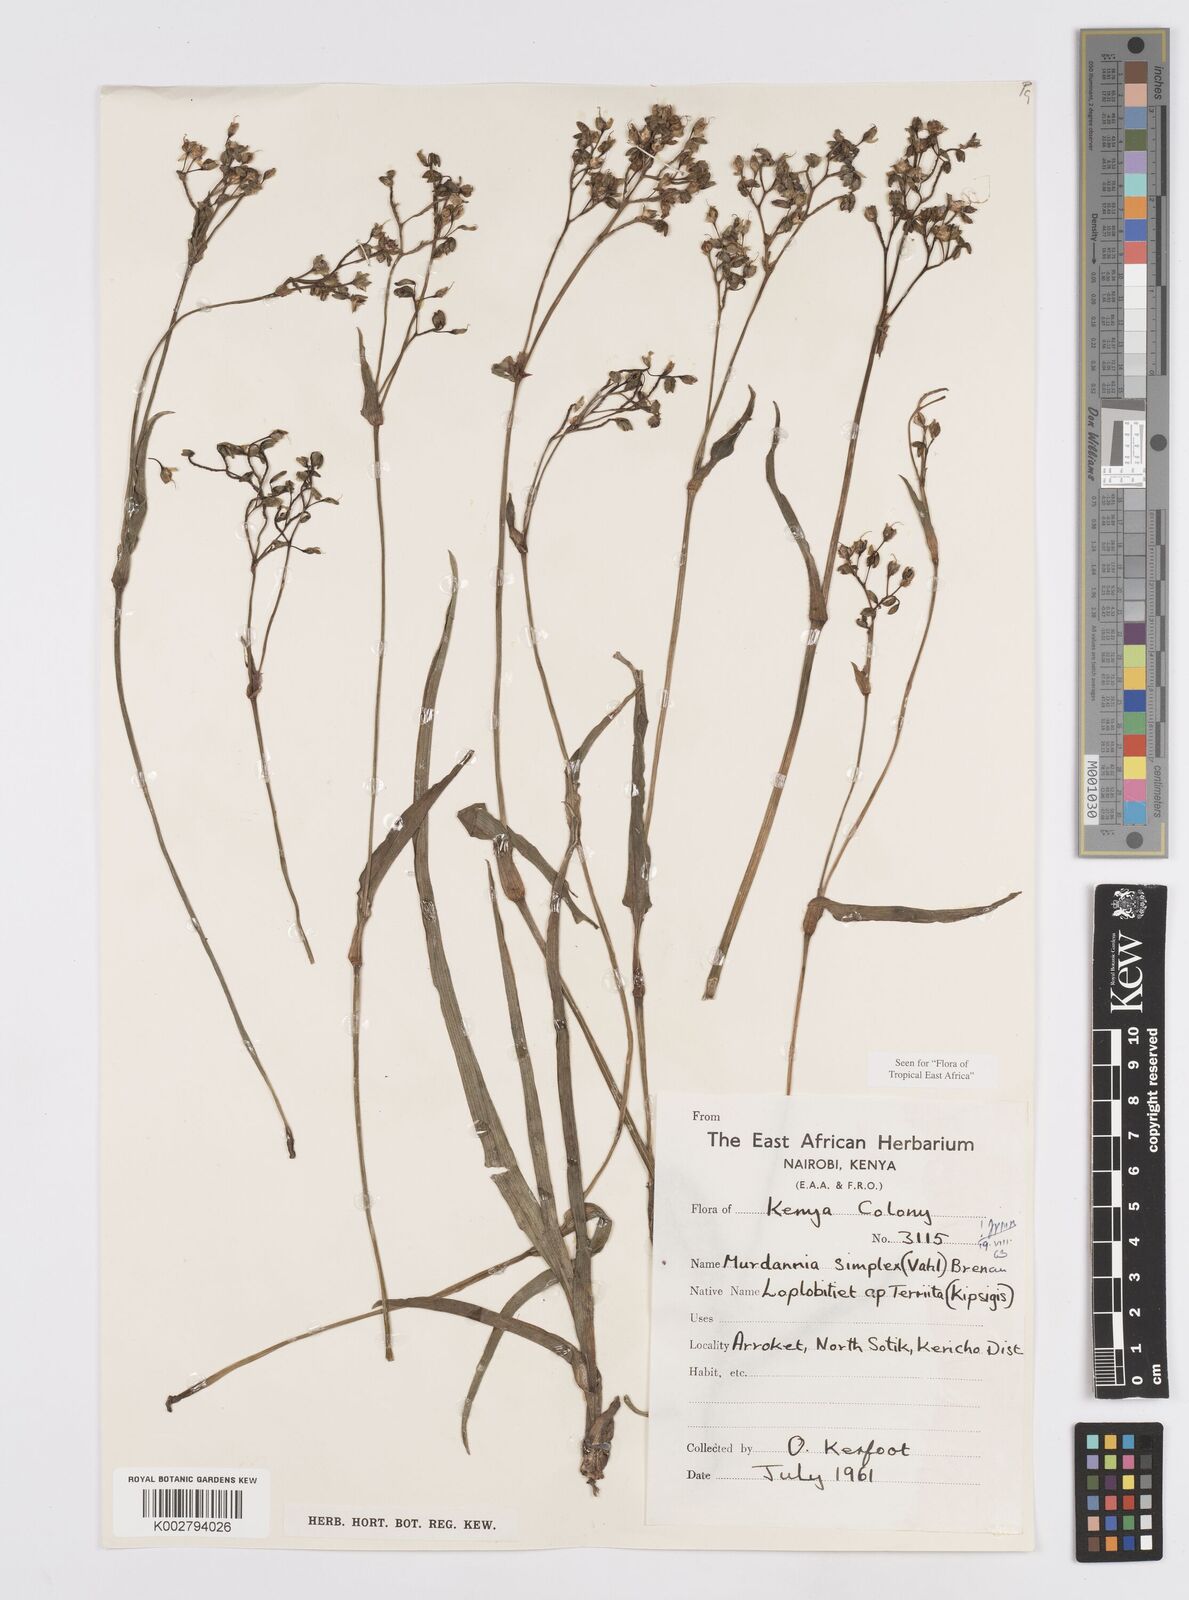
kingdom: Plantae
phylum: Tracheophyta
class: Liliopsida
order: Commelinales
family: Commelinaceae
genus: Murdannia
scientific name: Murdannia simplex
